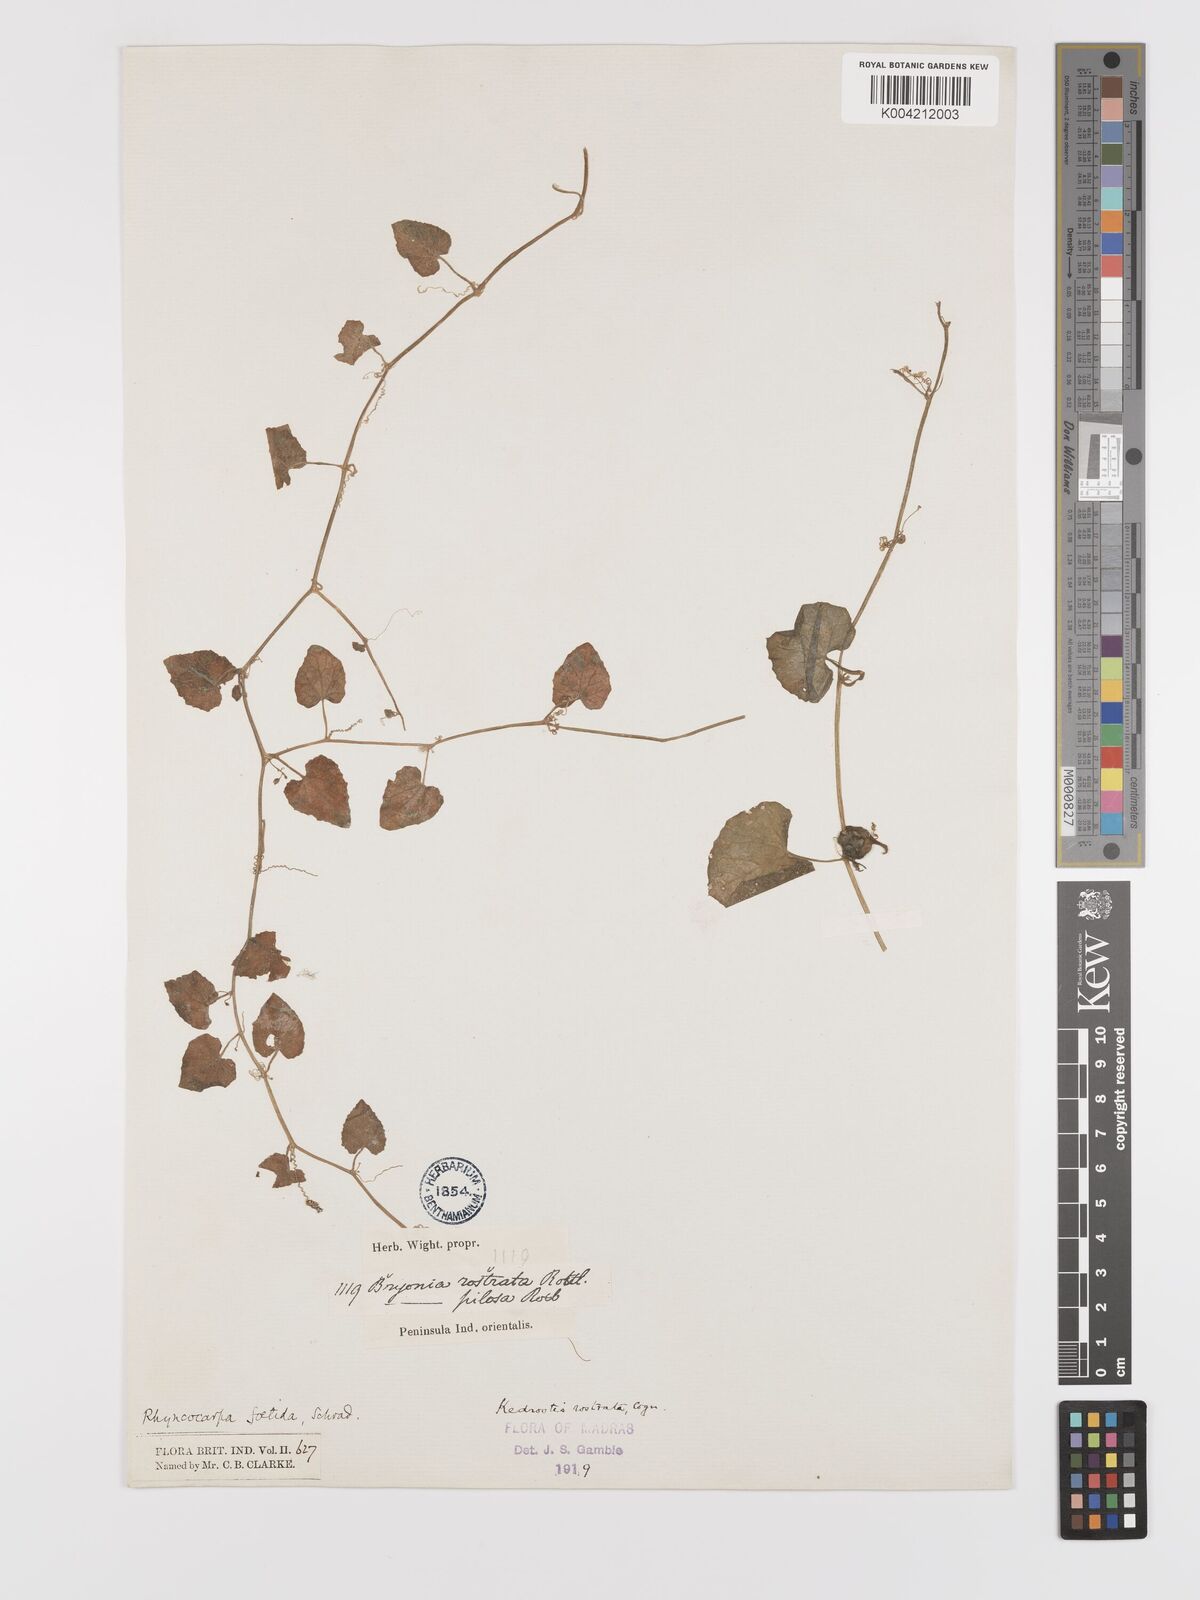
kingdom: Plantae
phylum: Tracheophyta
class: Magnoliopsida
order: Cucurbitales
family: Cucurbitaceae
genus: Kedrostis
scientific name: Kedrostis foetidissima
